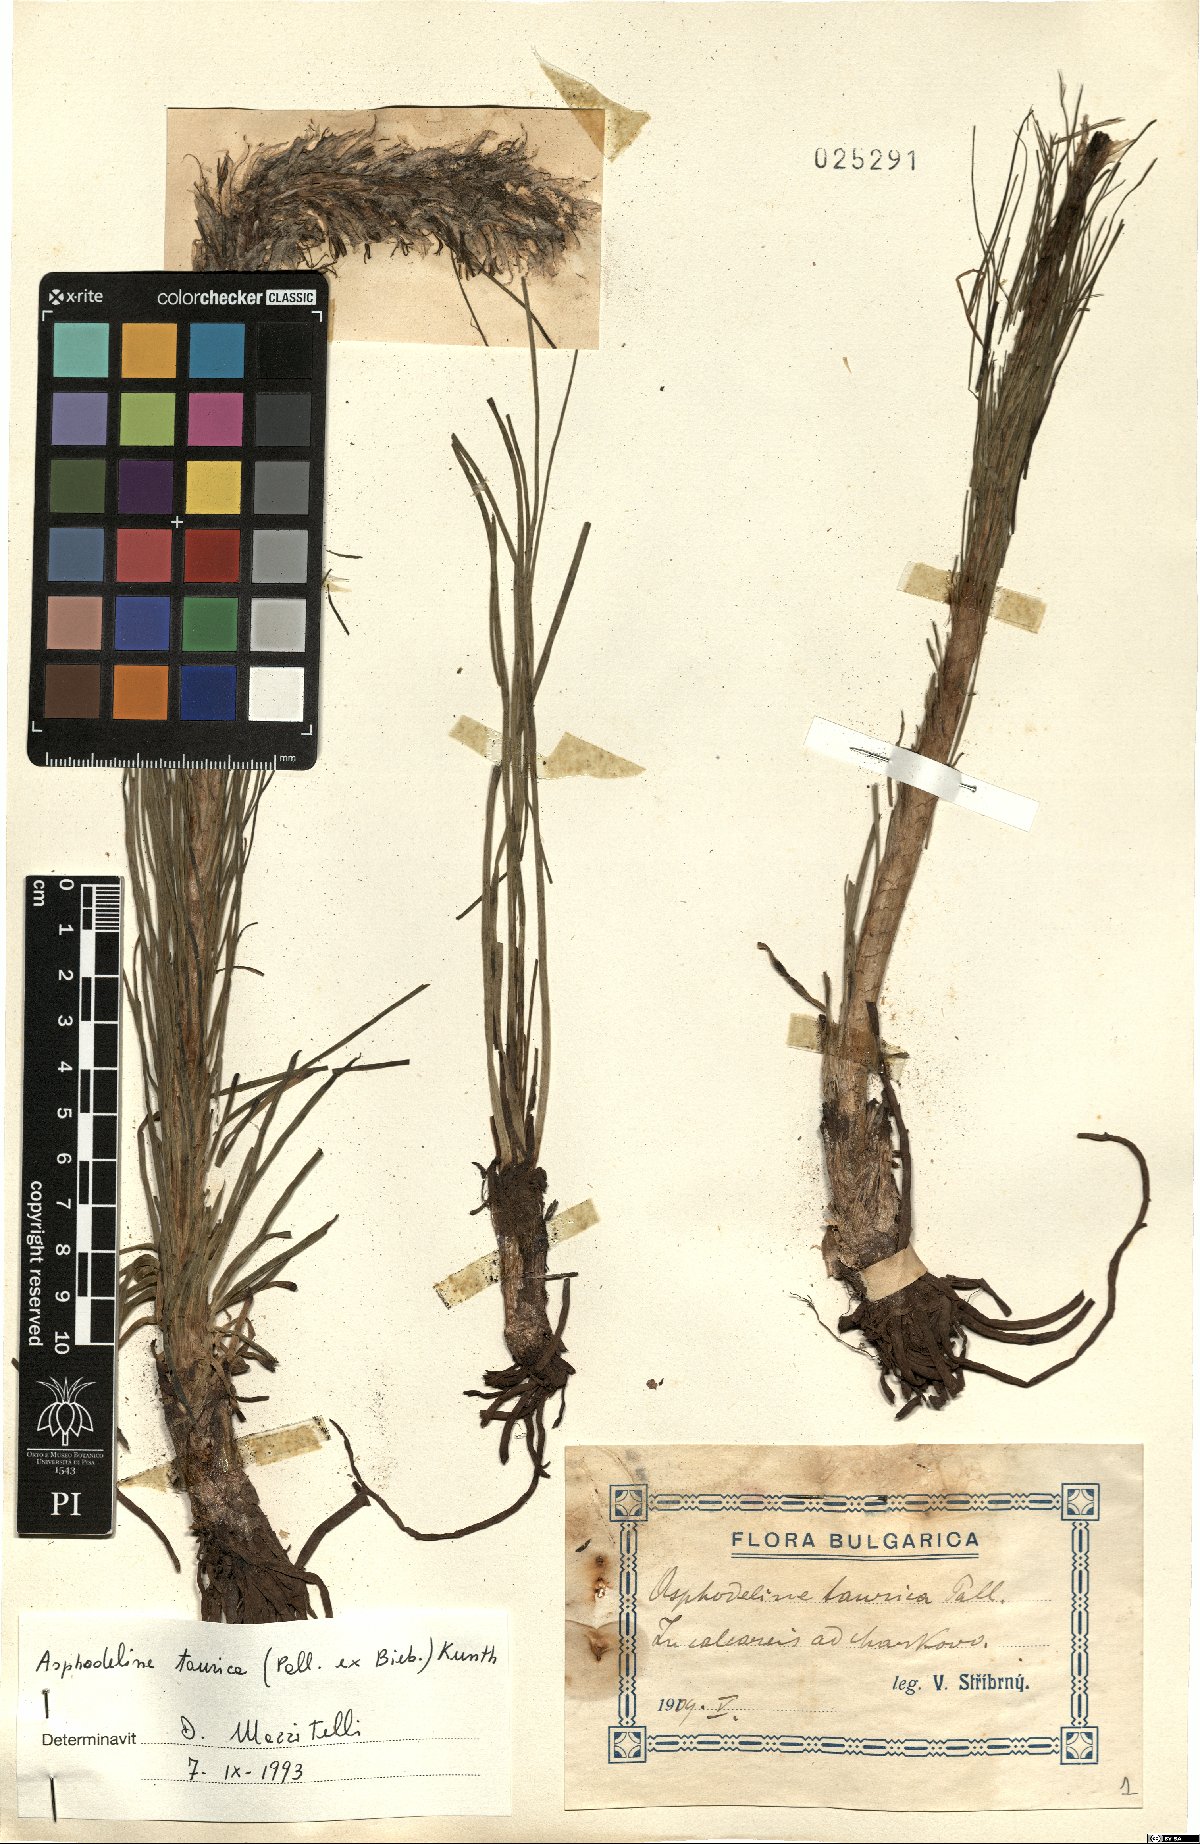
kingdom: Plantae
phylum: Tracheophyta
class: Liliopsida
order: Asparagales
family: Asphodelaceae
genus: Asphodeline
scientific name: Asphodeline taurica
